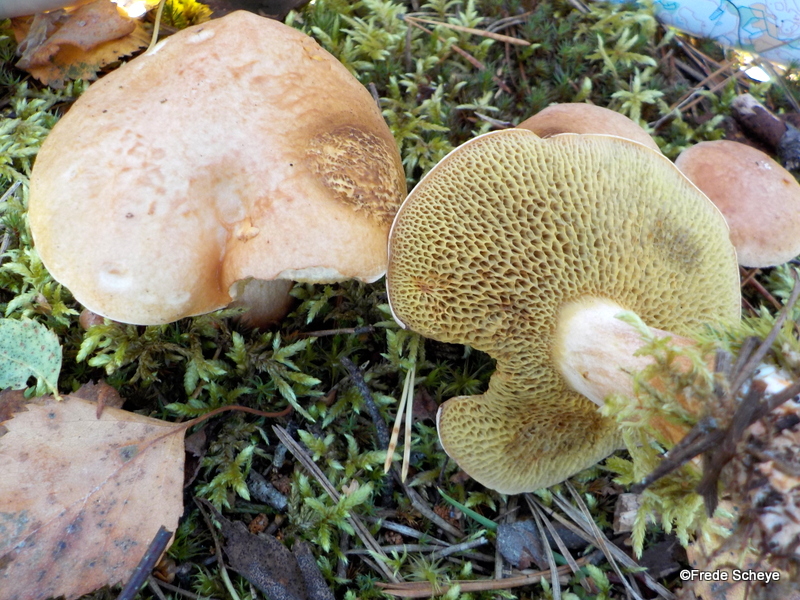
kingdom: Fungi
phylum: Basidiomycota
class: Agaricomycetes
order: Boletales
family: Suillaceae
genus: Suillus
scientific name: Suillus bovinus
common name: grovporet slimrørhat
